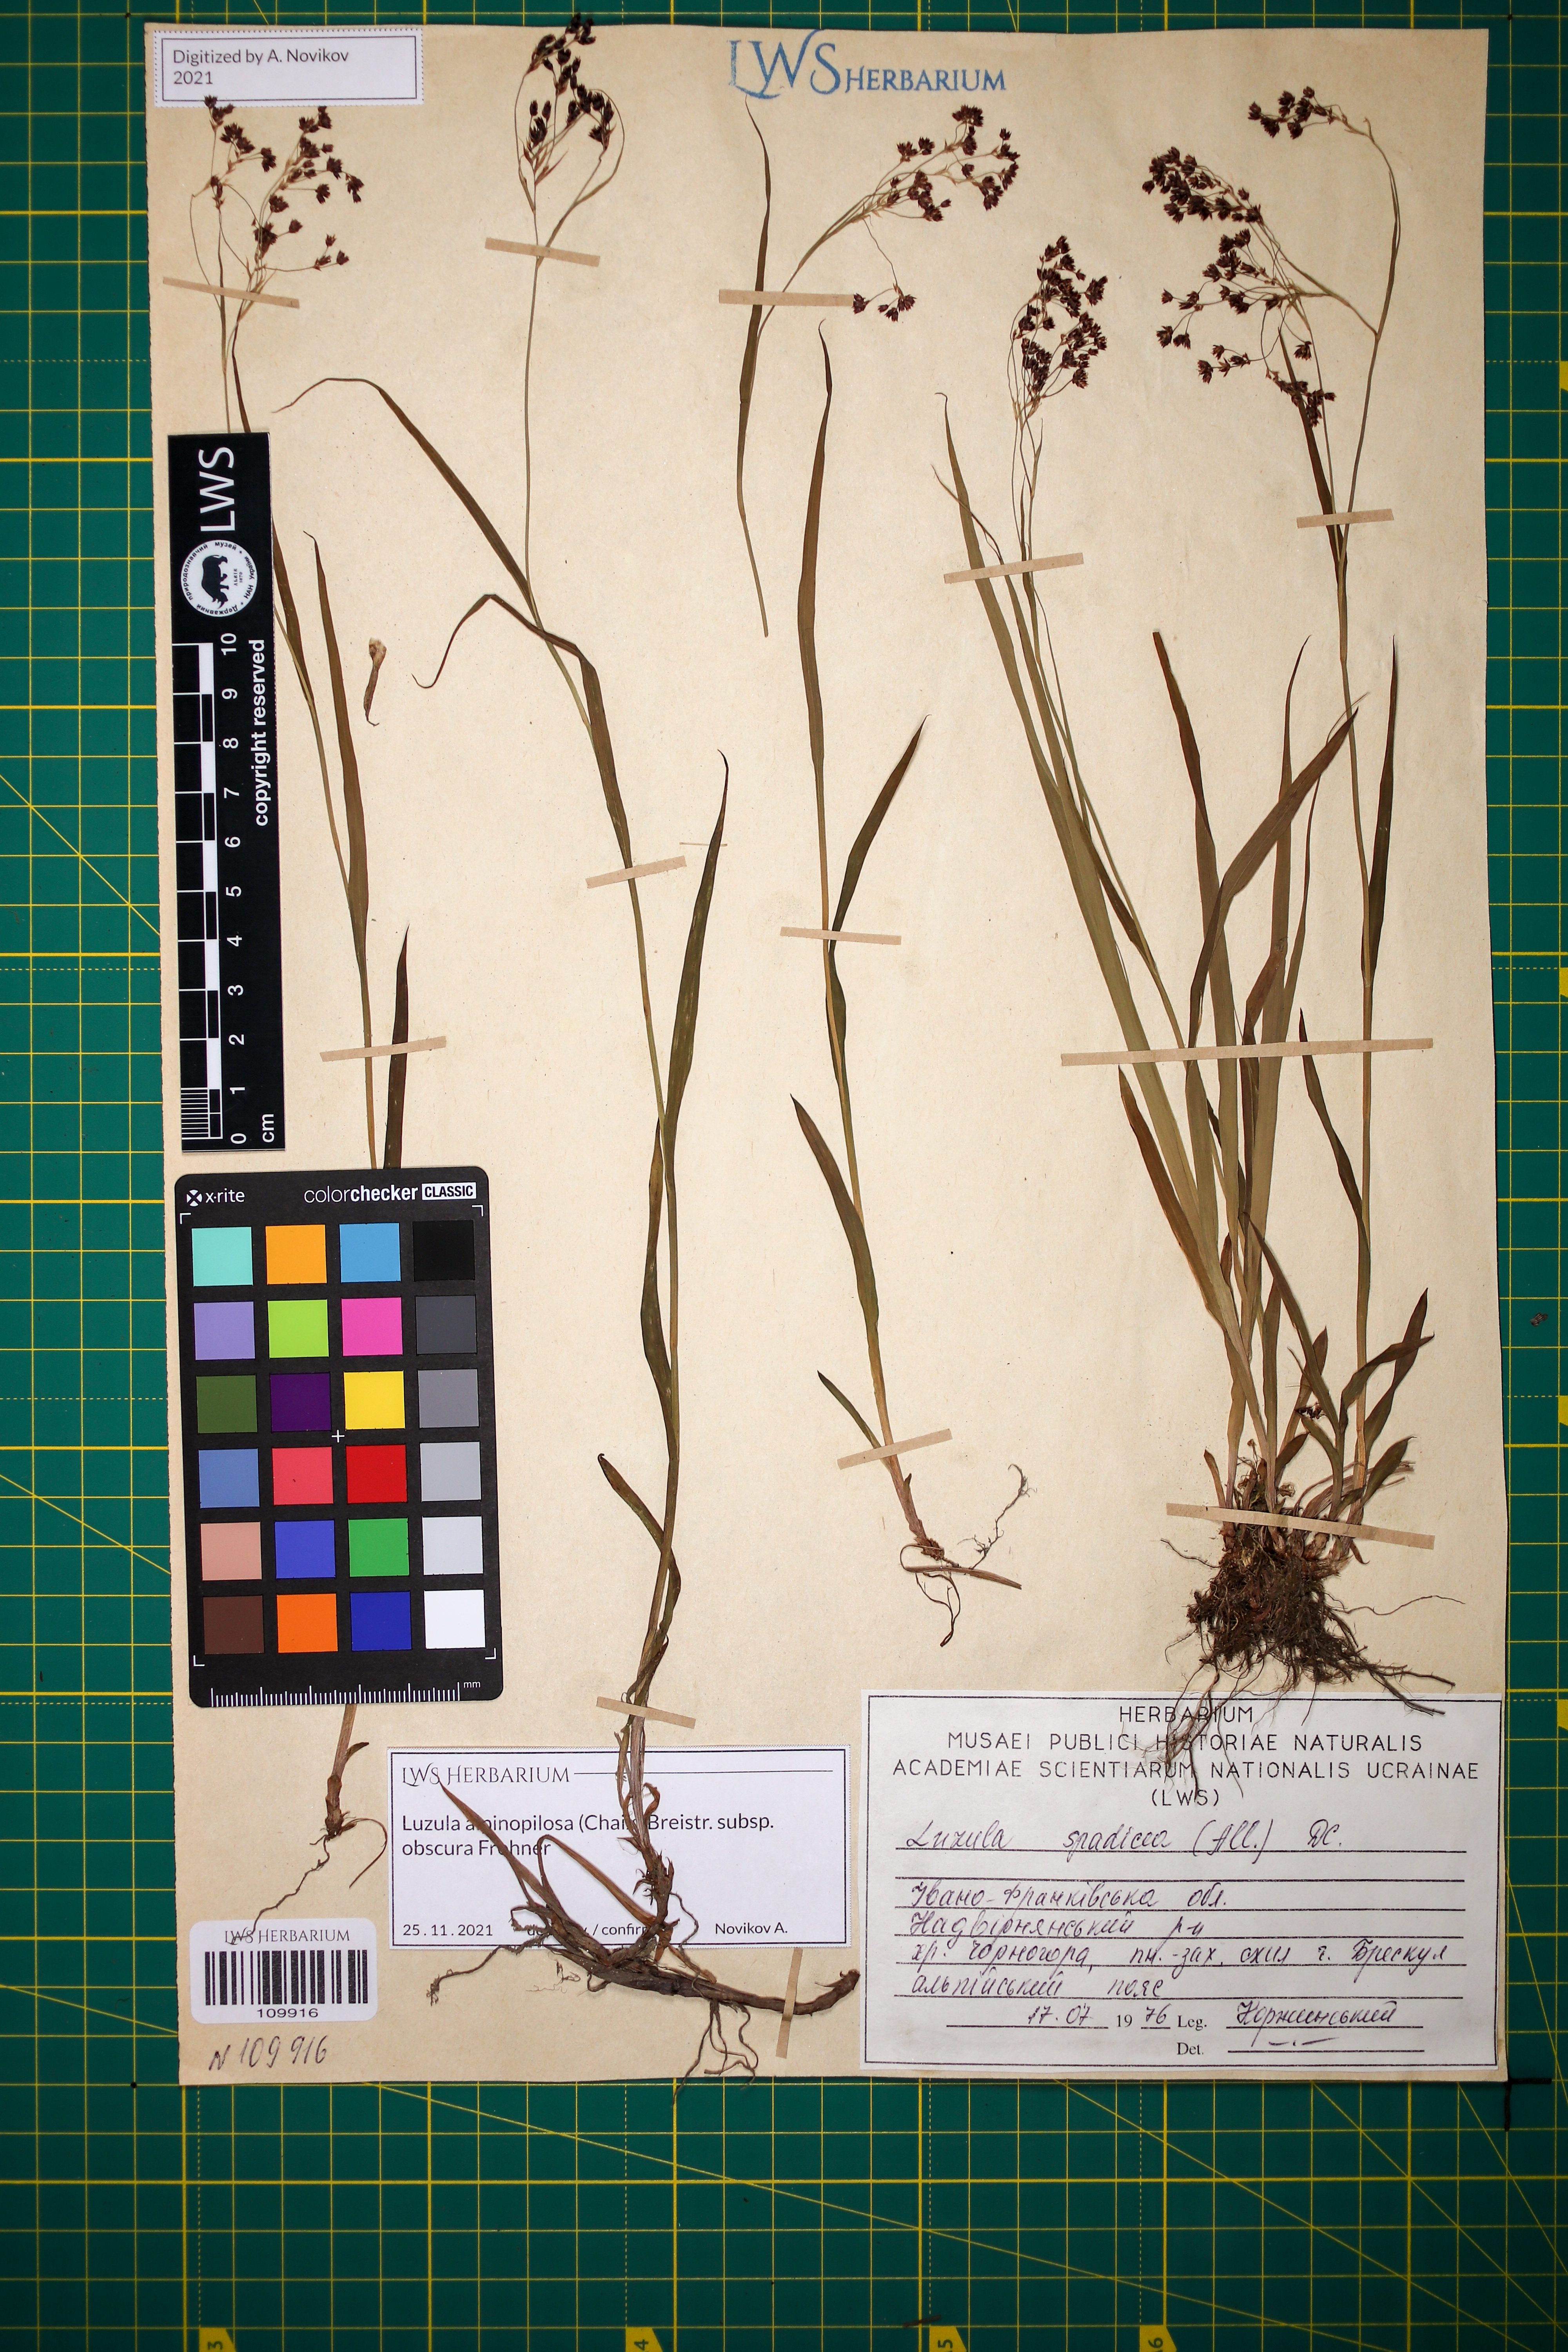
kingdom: Plantae
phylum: Tracheophyta
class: Liliopsida
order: Poales
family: Juncaceae
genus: Luzula
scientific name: Luzula alpinopilosa
